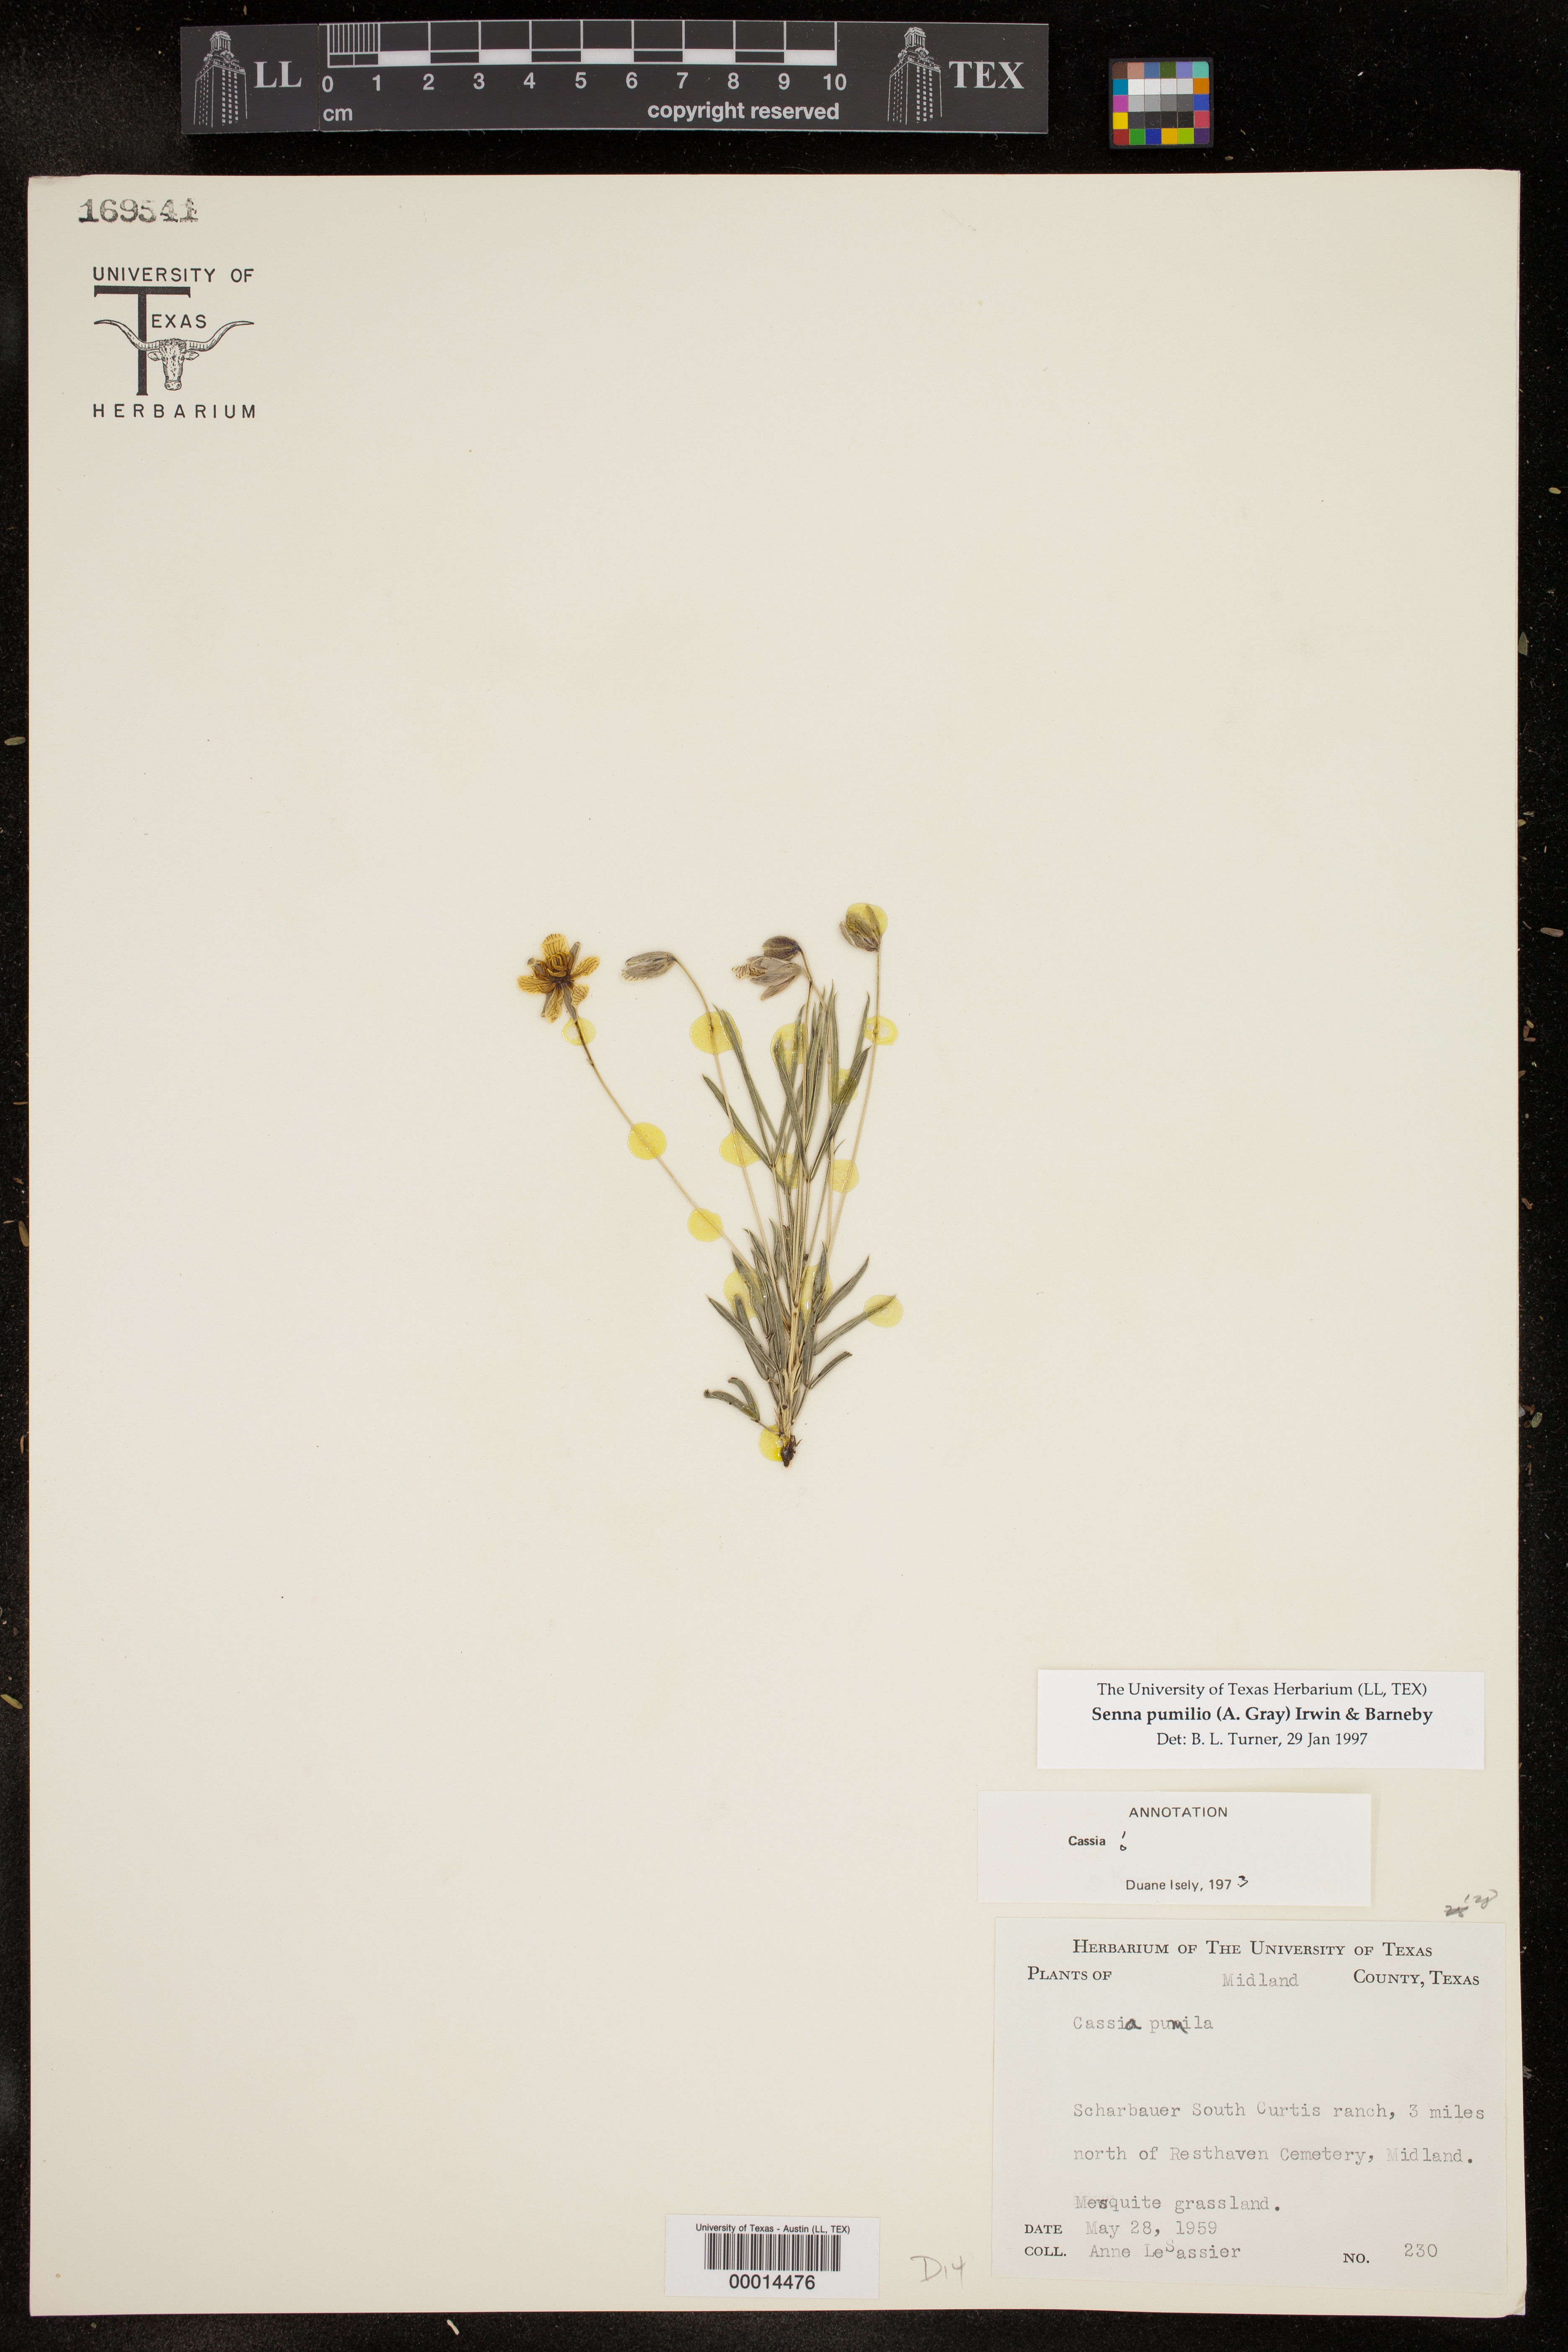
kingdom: Plantae
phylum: Tracheophyta
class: Magnoliopsida
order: Fabales
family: Fabaceae
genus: Senna
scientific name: Senna pumilio
